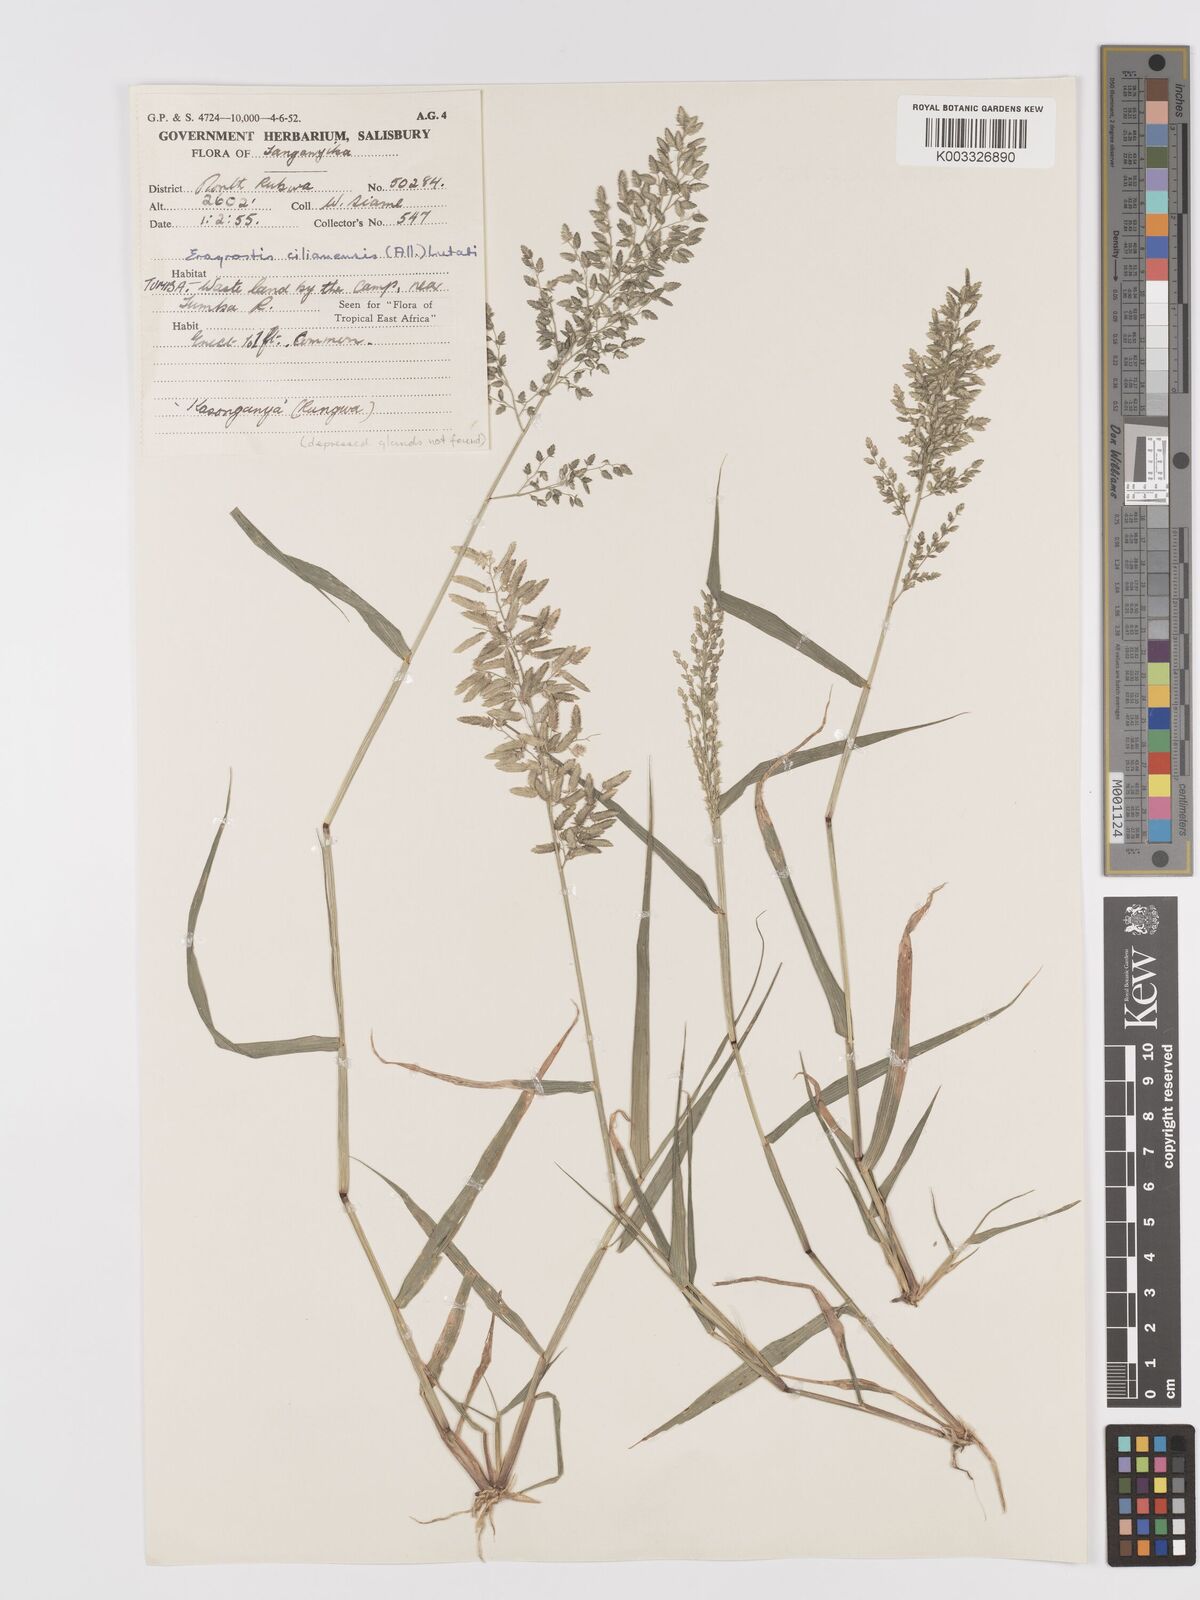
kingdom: Plantae
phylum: Tracheophyta
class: Liliopsida
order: Poales
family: Poaceae
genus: Eragrostis
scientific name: Eragrostis cilianensis
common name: Stinkgrass
